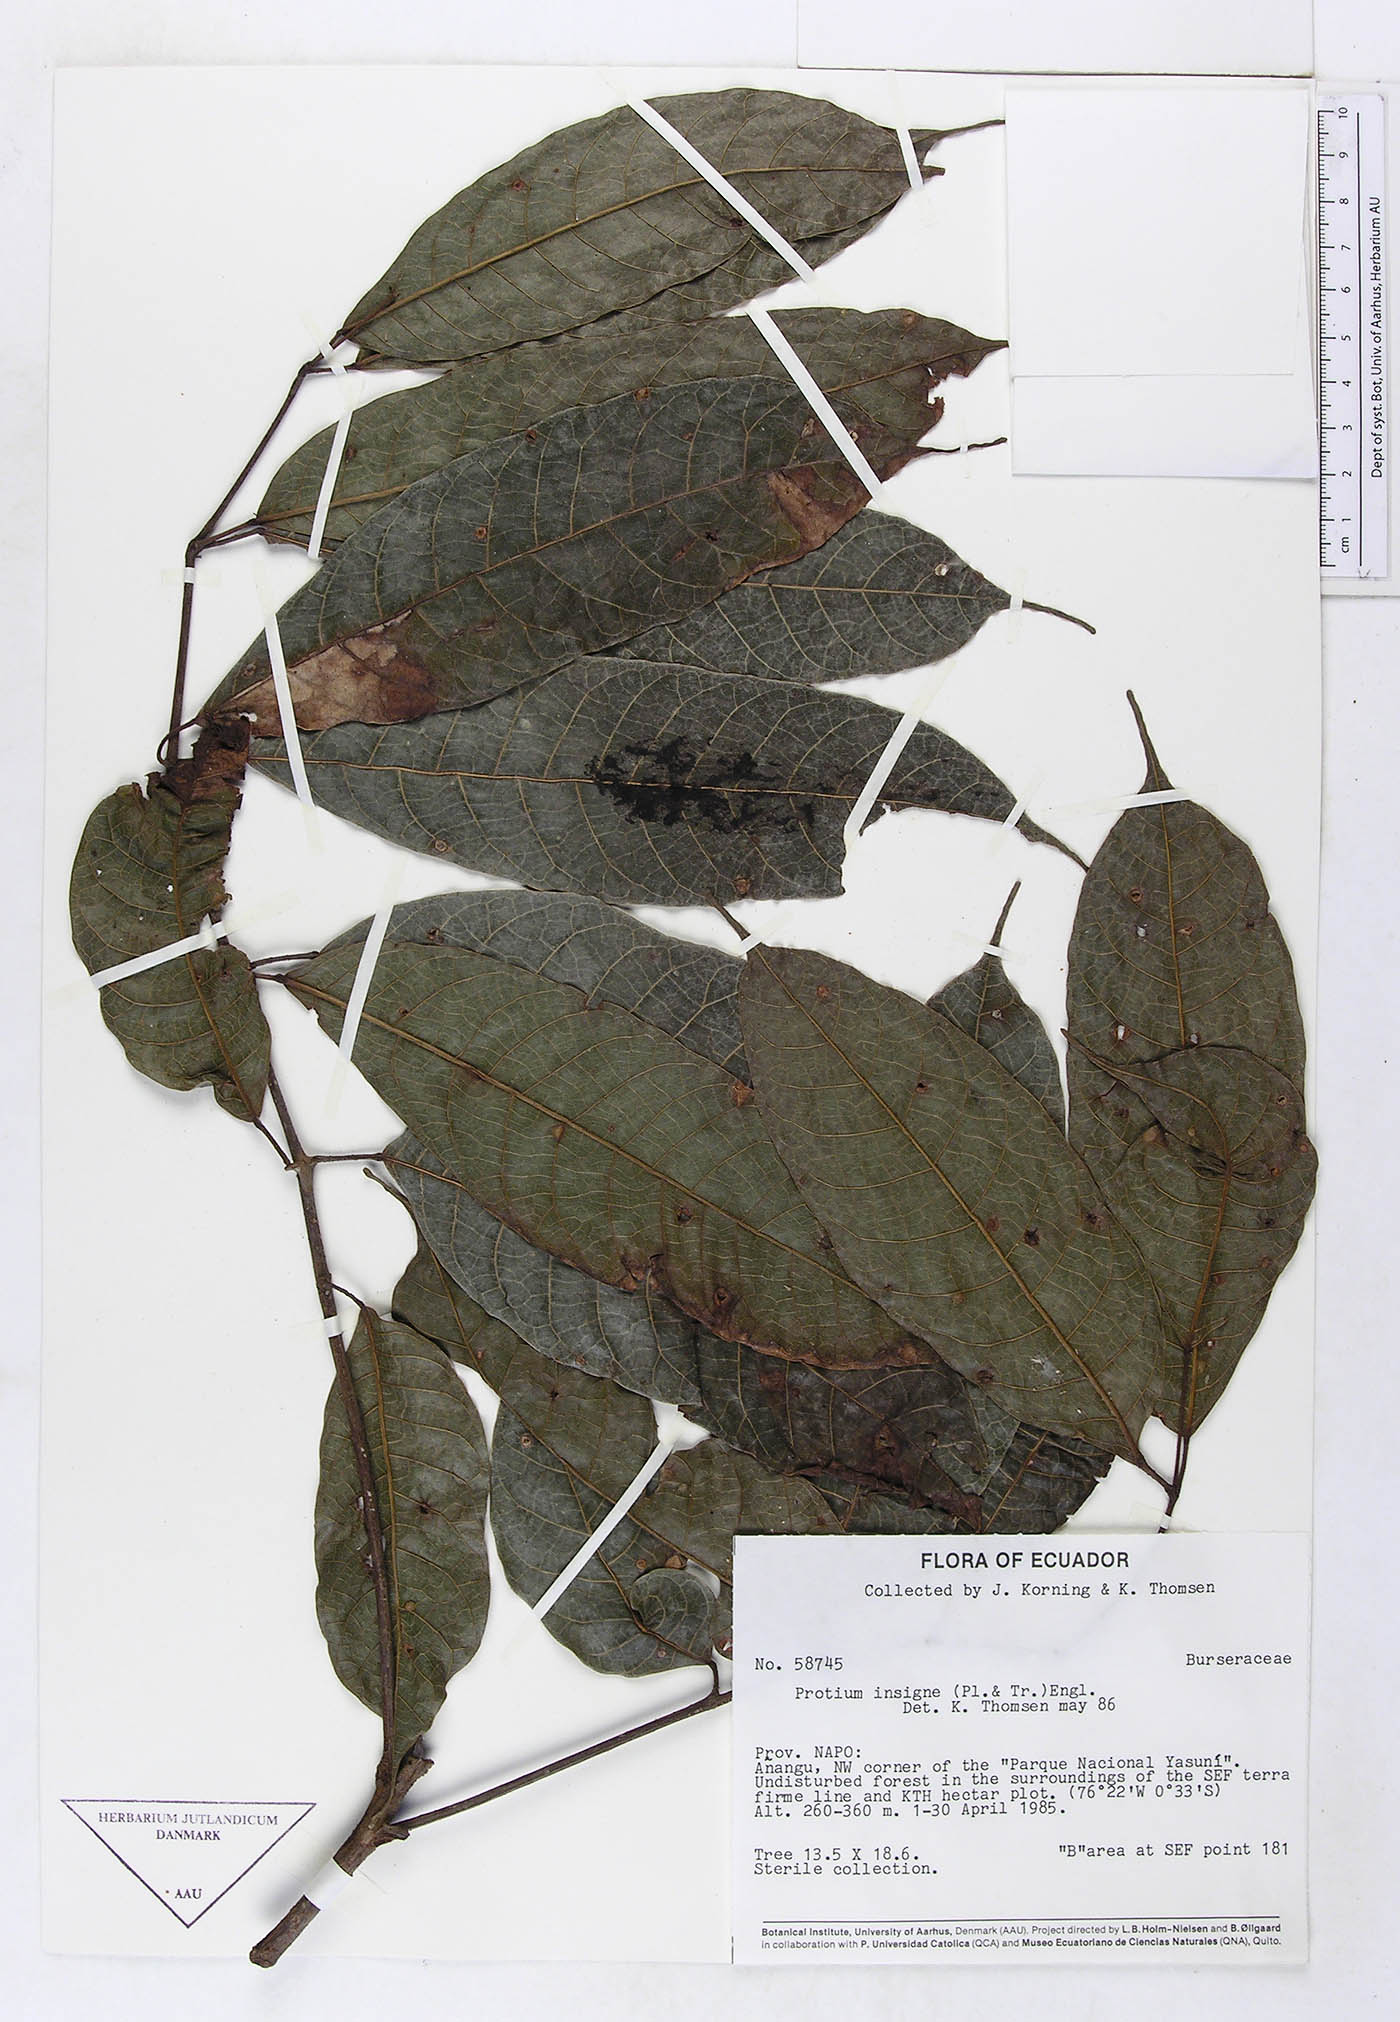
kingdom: Plantae
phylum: Tracheophyta
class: Magnoliopsida
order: Sapindales
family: Burseraceae
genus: Protium
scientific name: Protium sagotianum
